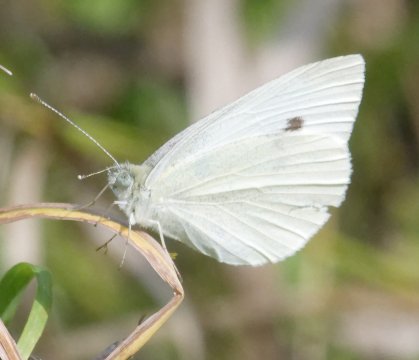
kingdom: Animalia
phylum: Arthropoda
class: Insecta
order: Lepidoptera
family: Pieridae
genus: Pieris
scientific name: Pieris rapae
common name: Cabbage White
